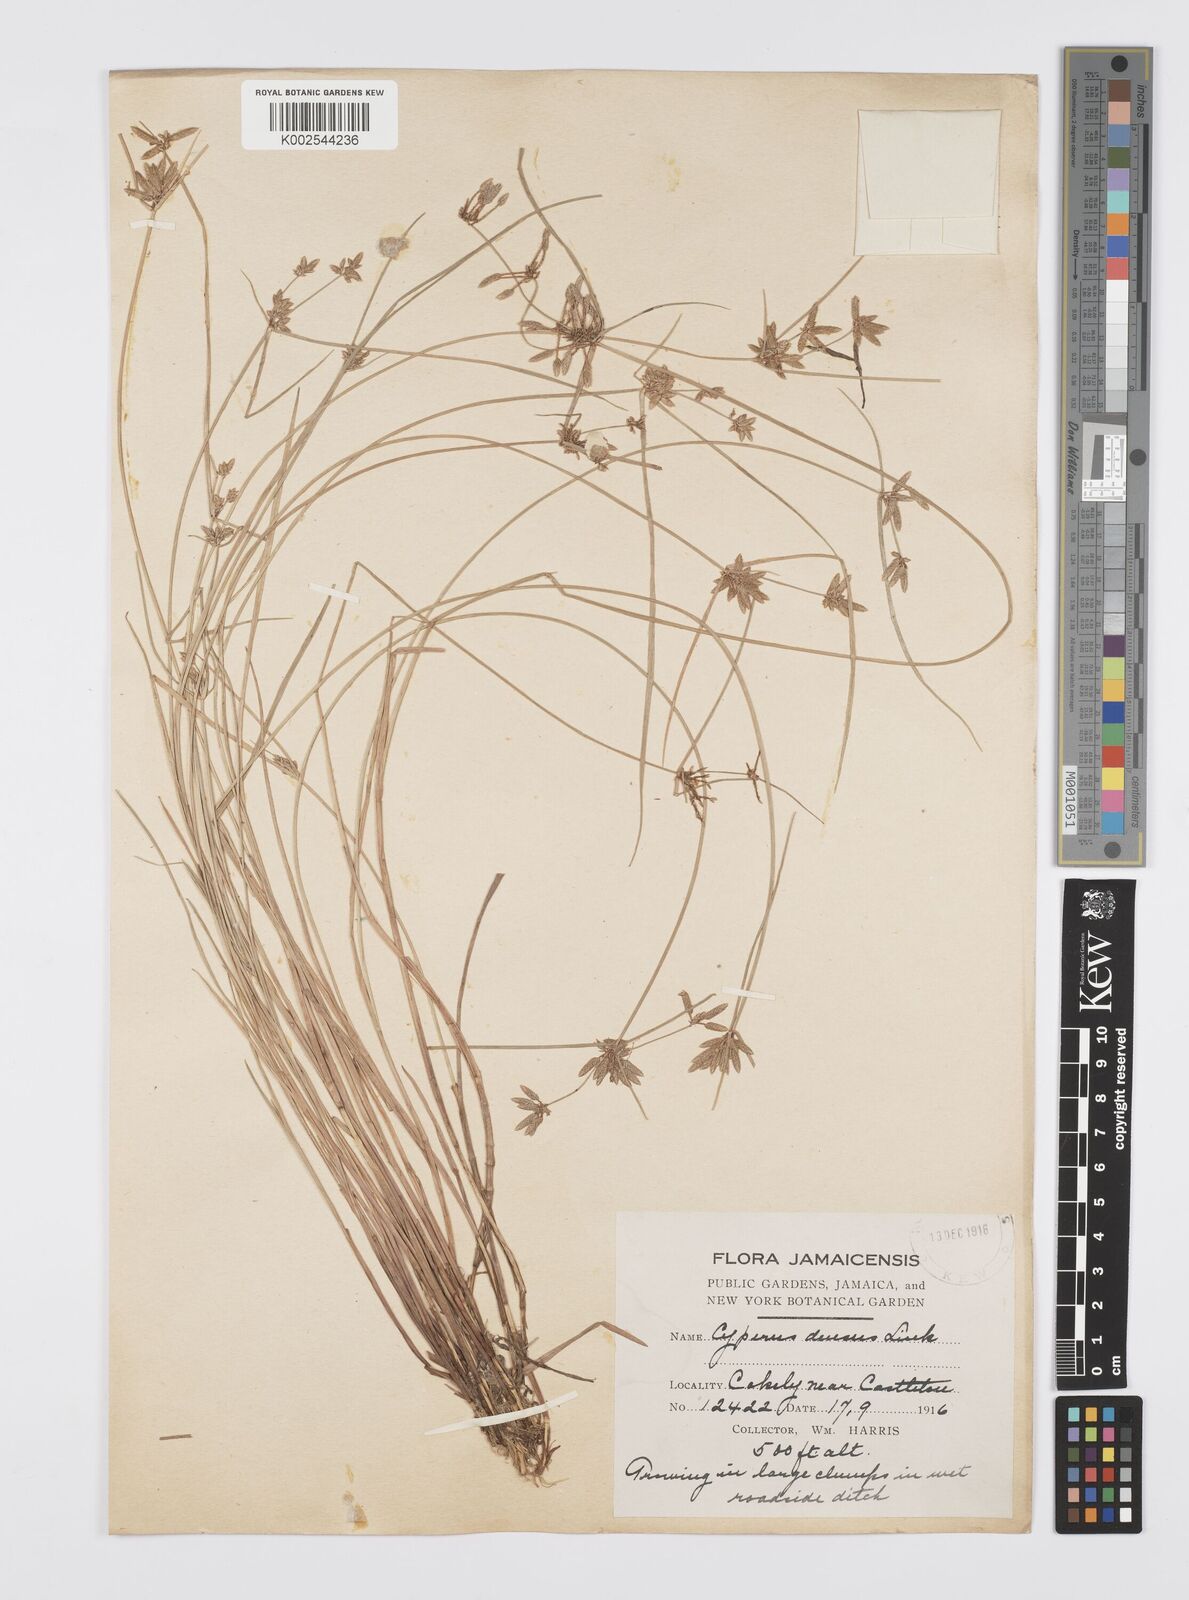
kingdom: Plantae
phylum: Tracheophyta
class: Liliopsida
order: Poales
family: Cyperaceae
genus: Cyperus
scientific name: Cyperus lanceolatus
